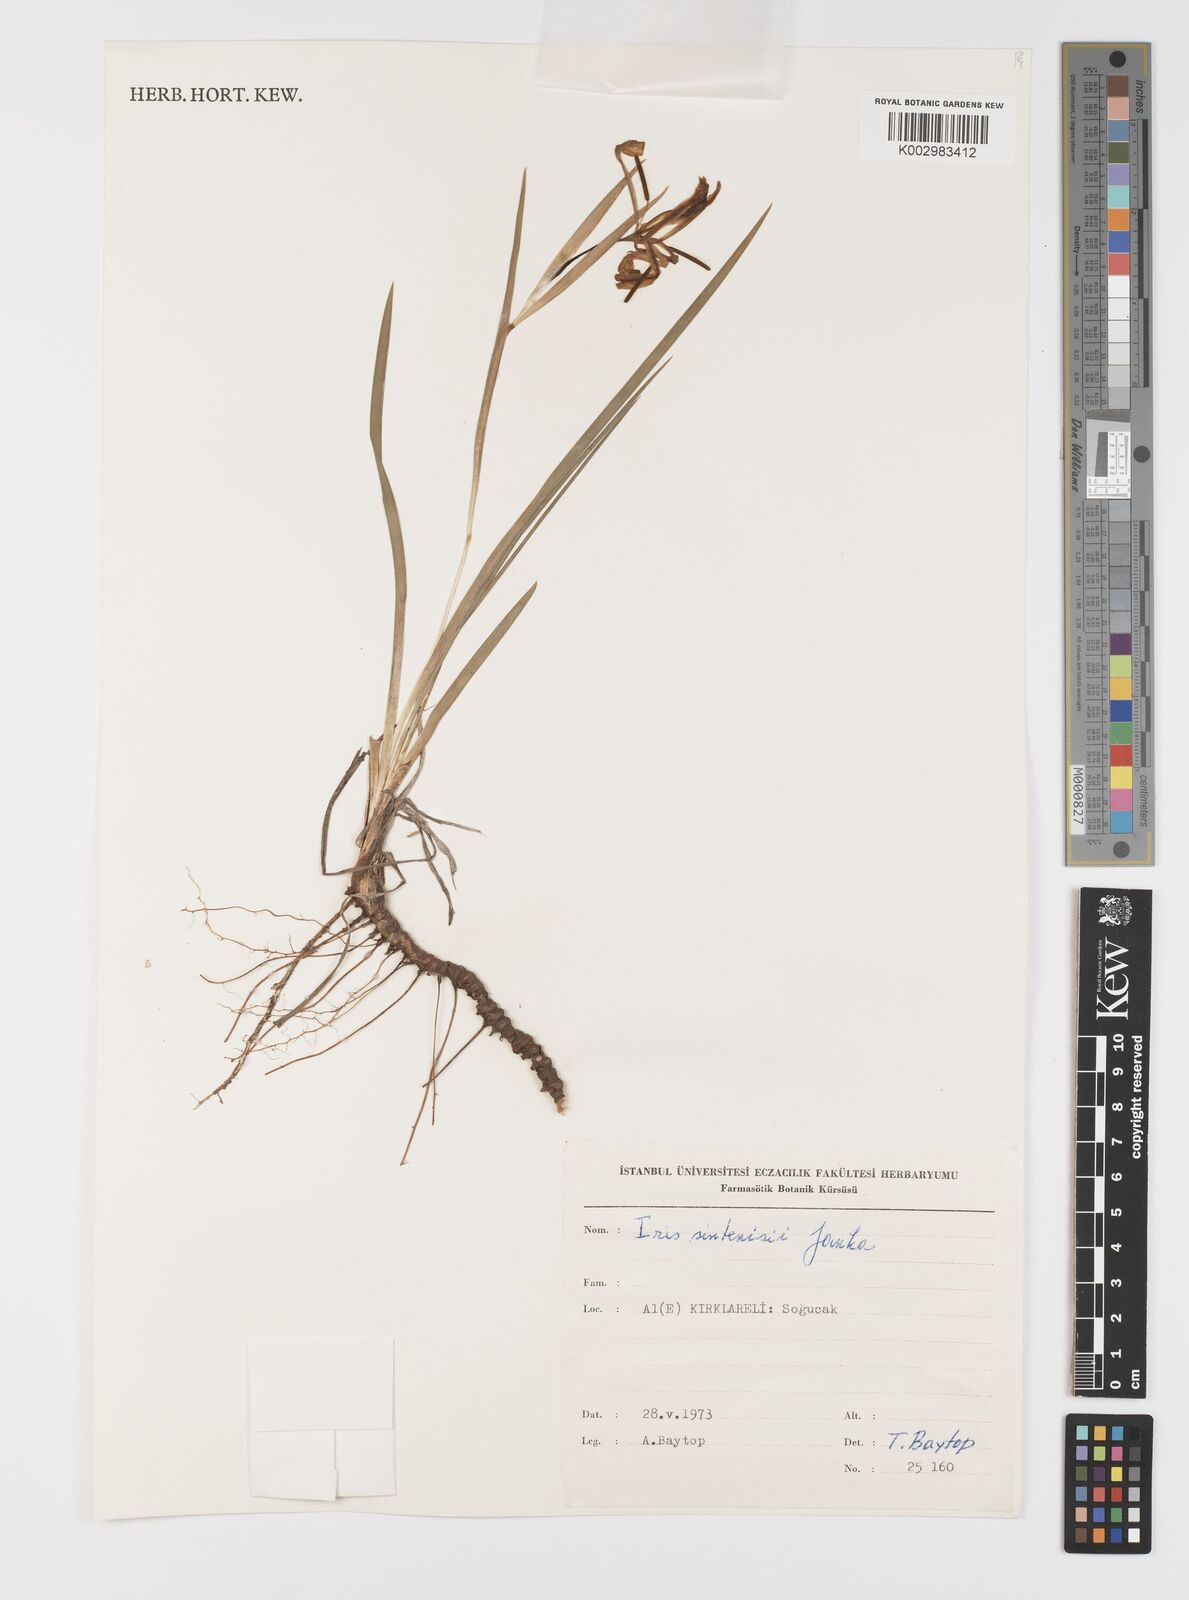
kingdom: Plantae
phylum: Tracheophyta
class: Liliopsida
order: Asparagales
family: Iridaceae
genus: Iris
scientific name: Iris sintenisii
